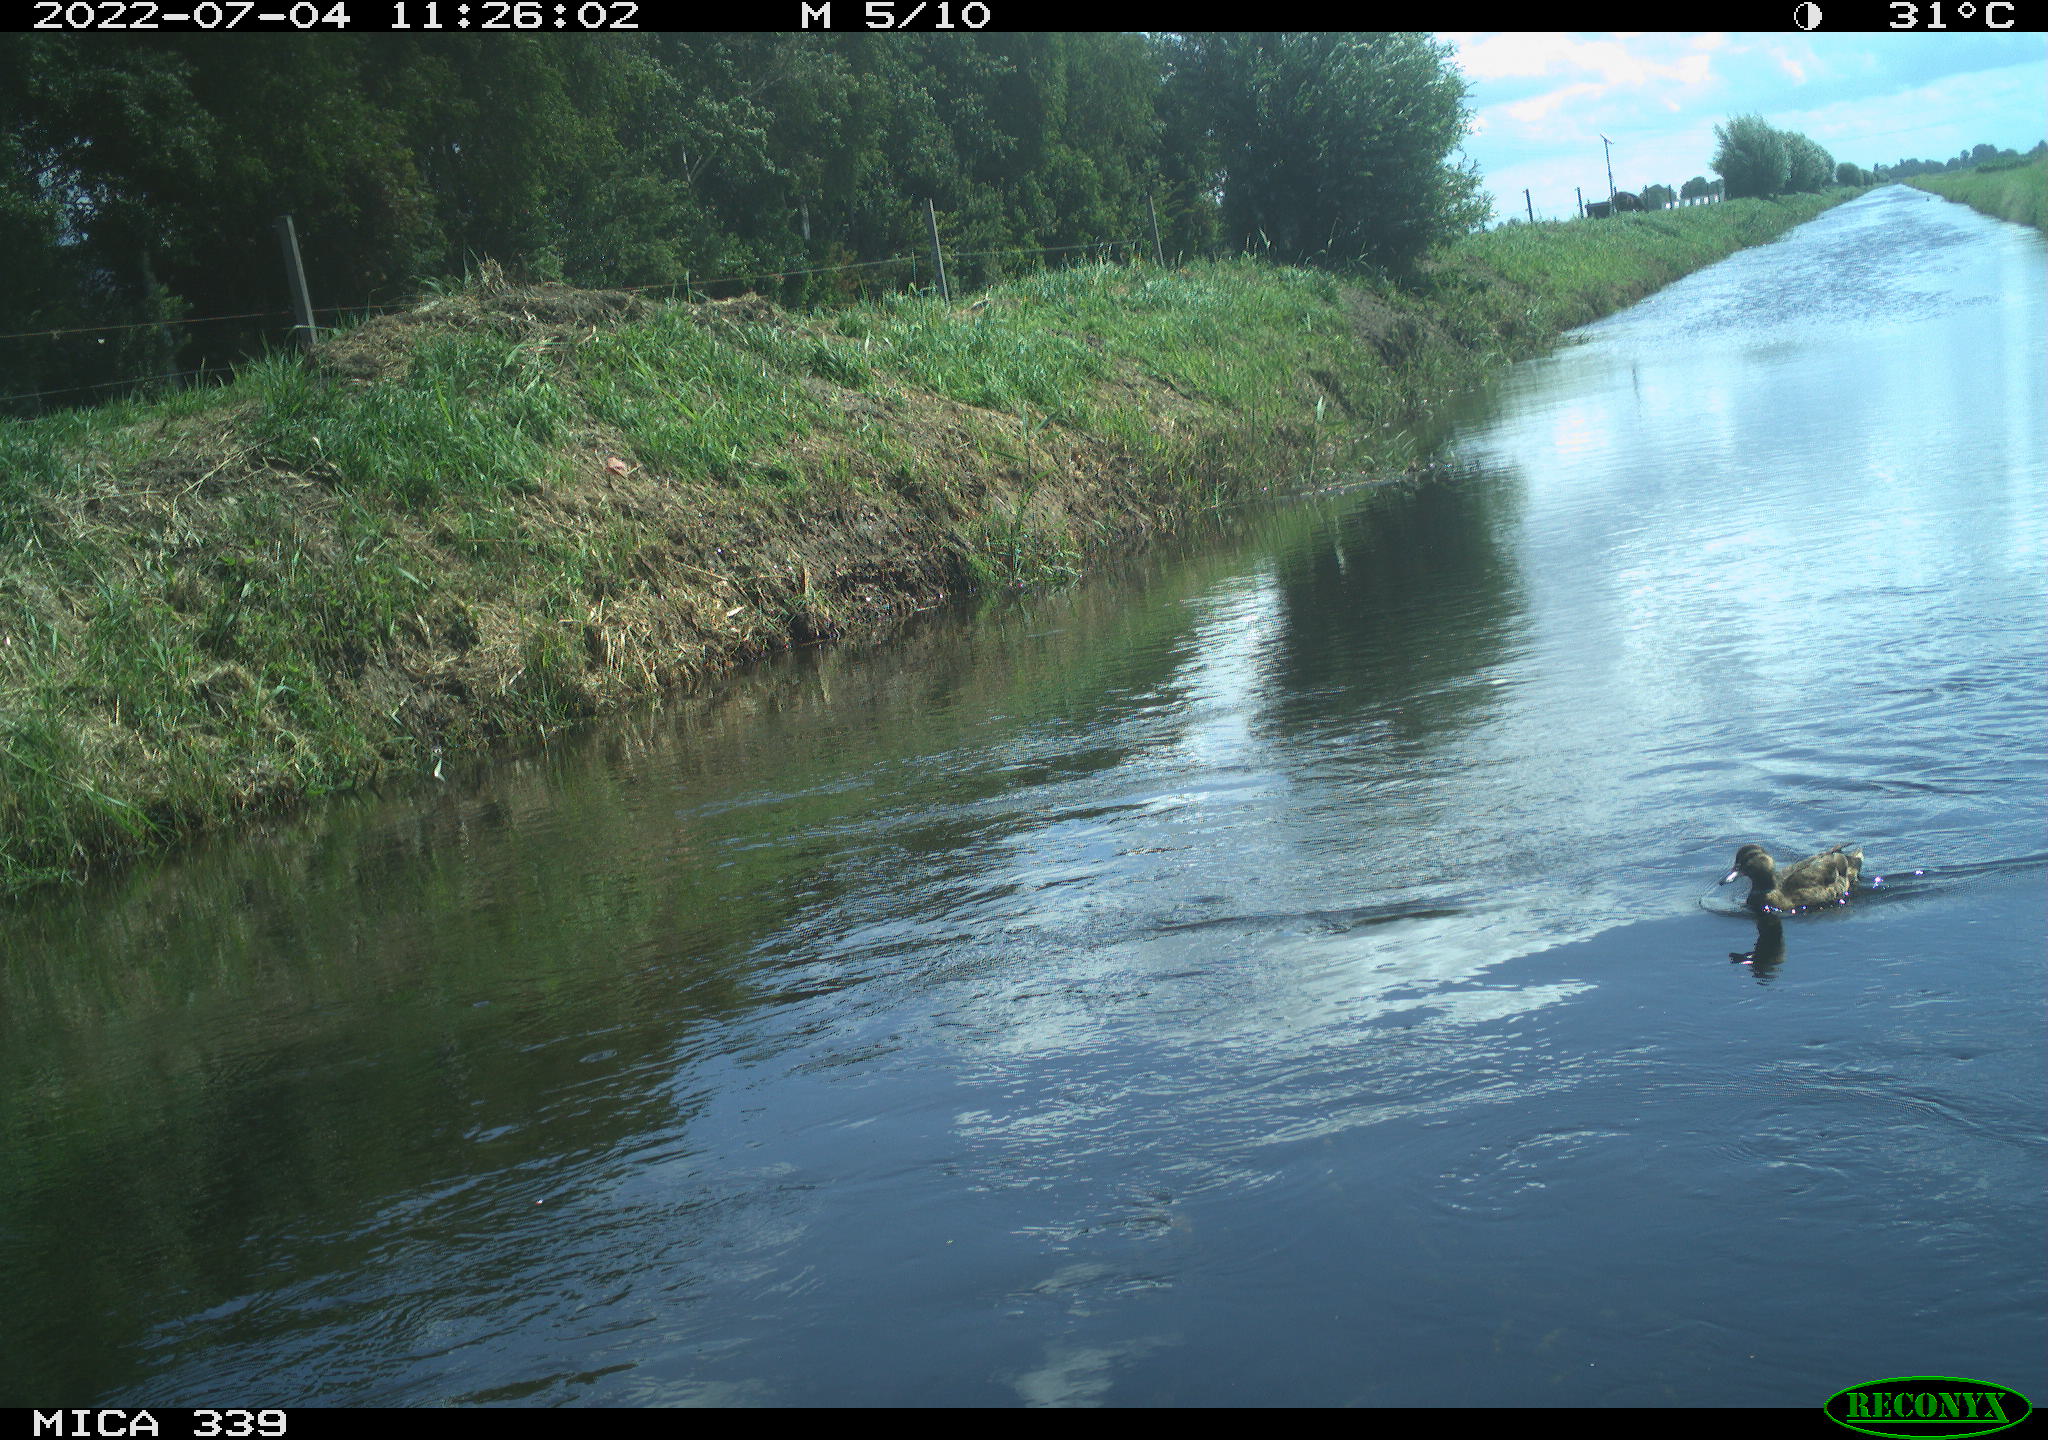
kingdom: Animalia
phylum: Chordata
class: Aves
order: Anseriformes
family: Anatidae
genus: Anas
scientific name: Anas platyrhynchos
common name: Mallard
